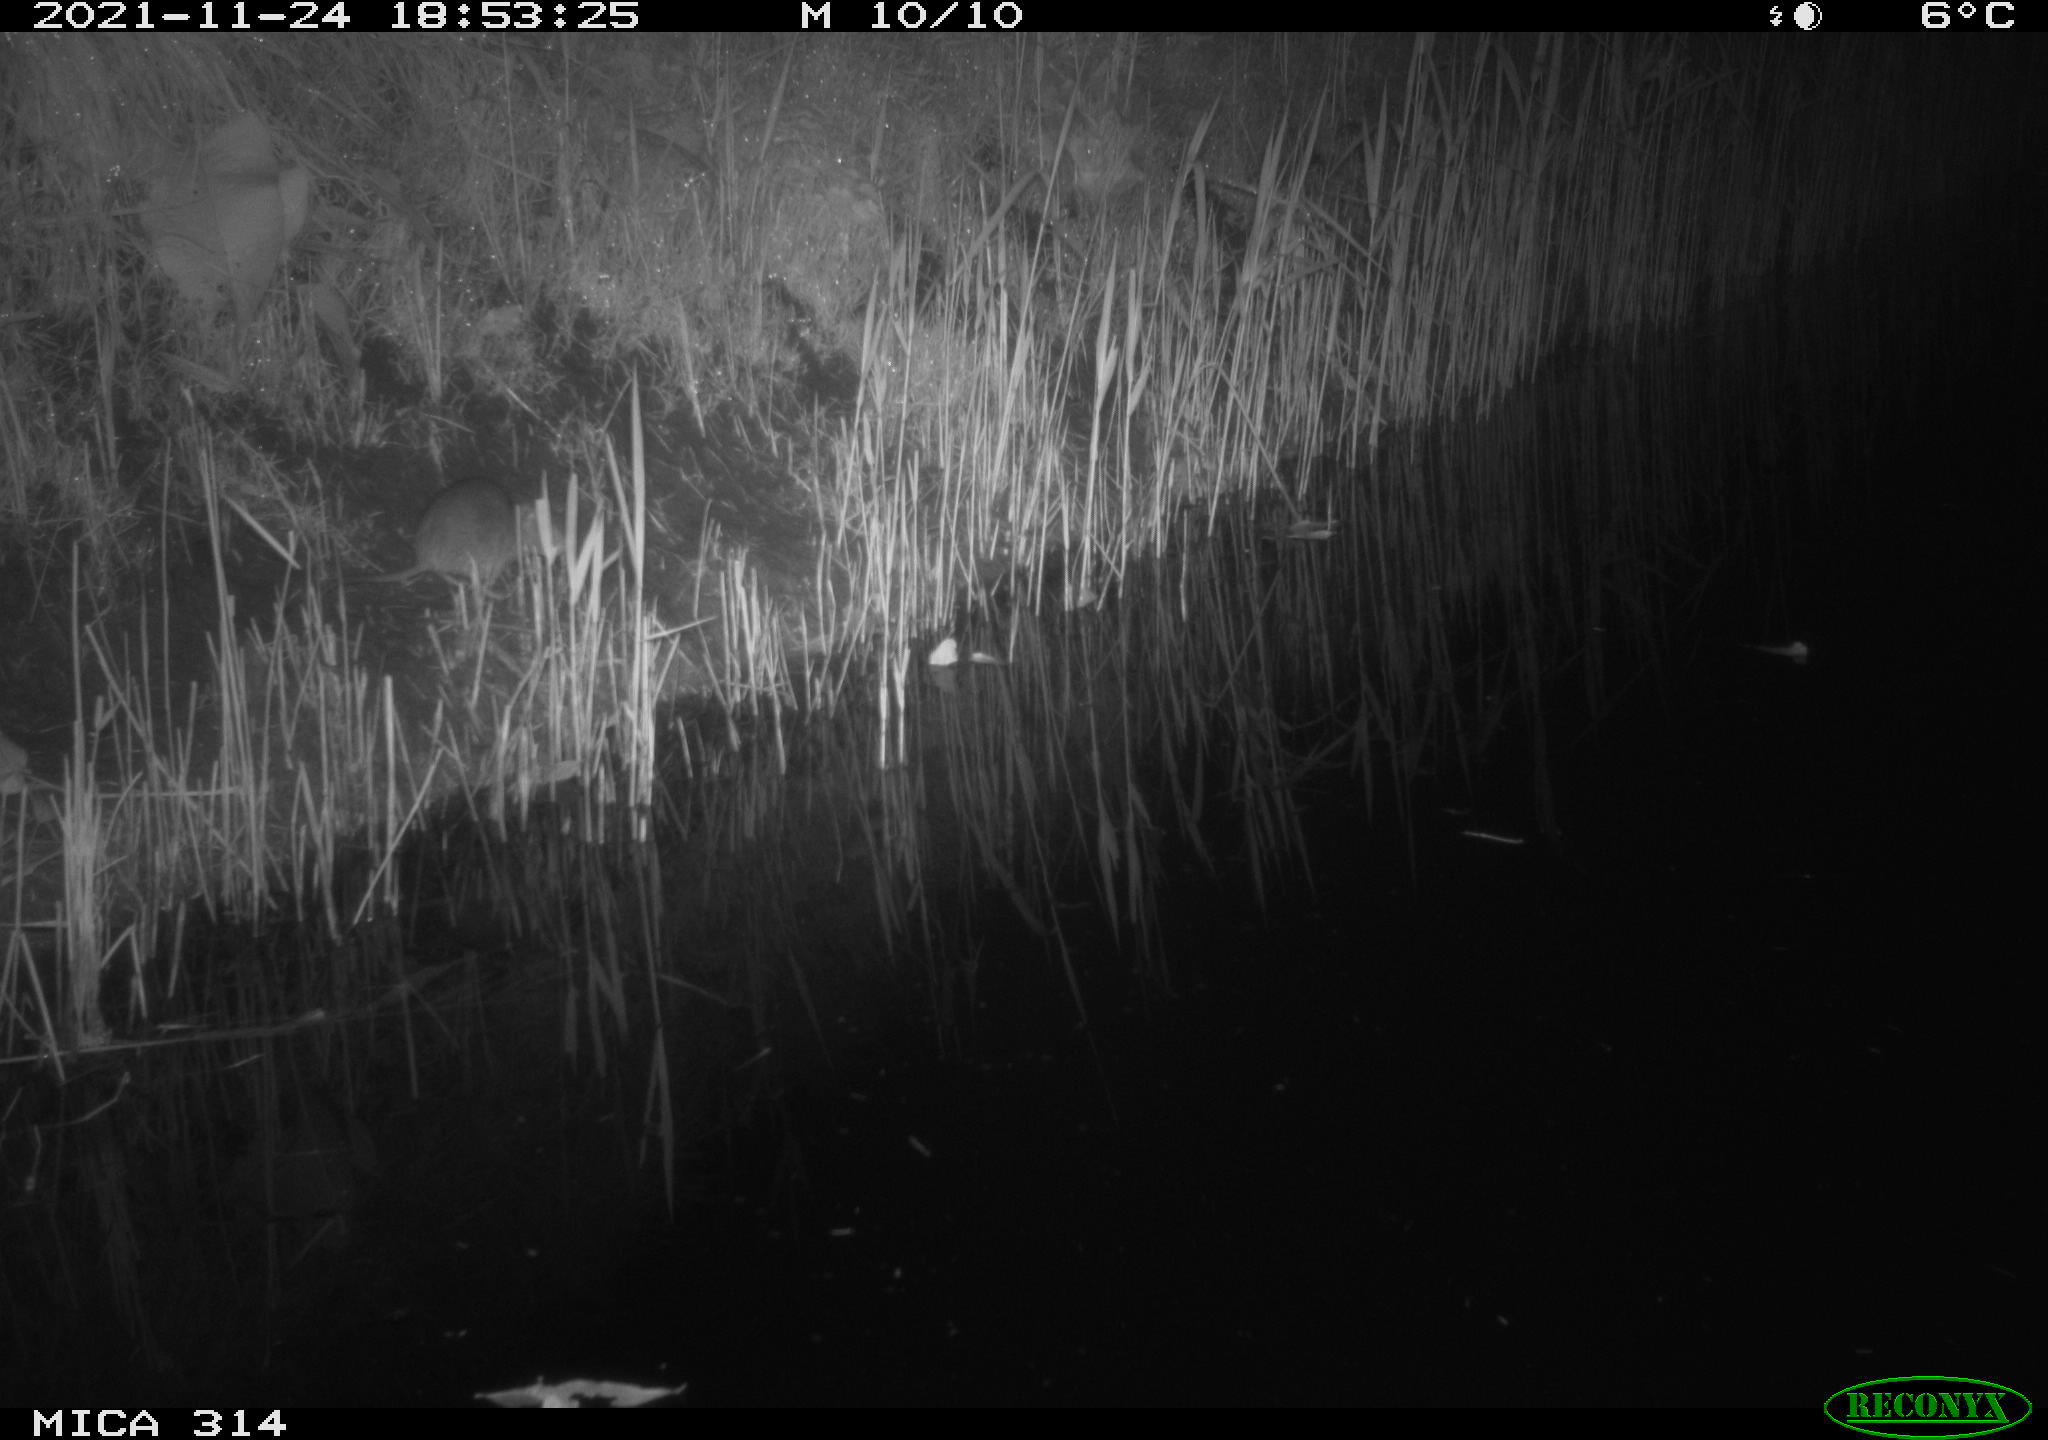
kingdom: Animalia
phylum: Chordata
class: Mammalia
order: Rodentia
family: Muridae
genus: Rattus
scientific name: Rattus norvegicus
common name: Brown rat
